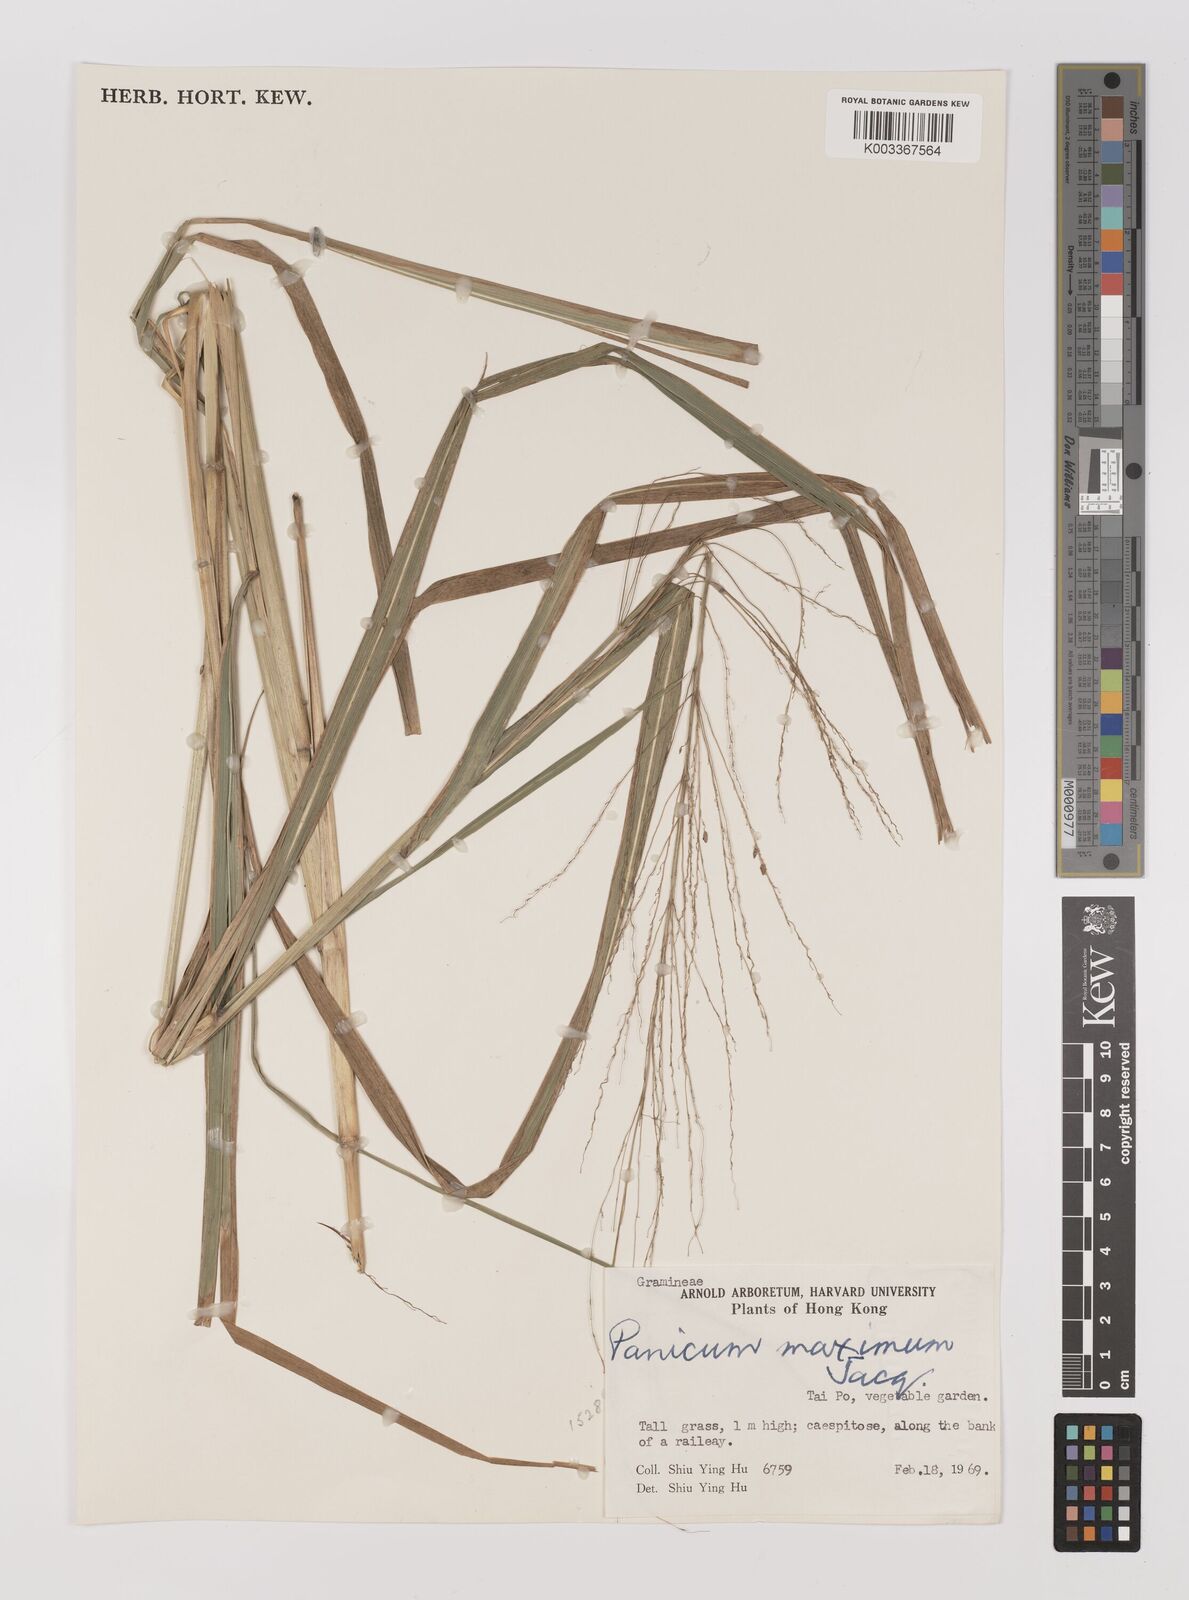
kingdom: Plantae
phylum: Tracheophyta
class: Liliopsida
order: Poales
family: Poaceae
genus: Megathyrsus
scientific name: Megathyrsus maximus
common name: Guineagrass
